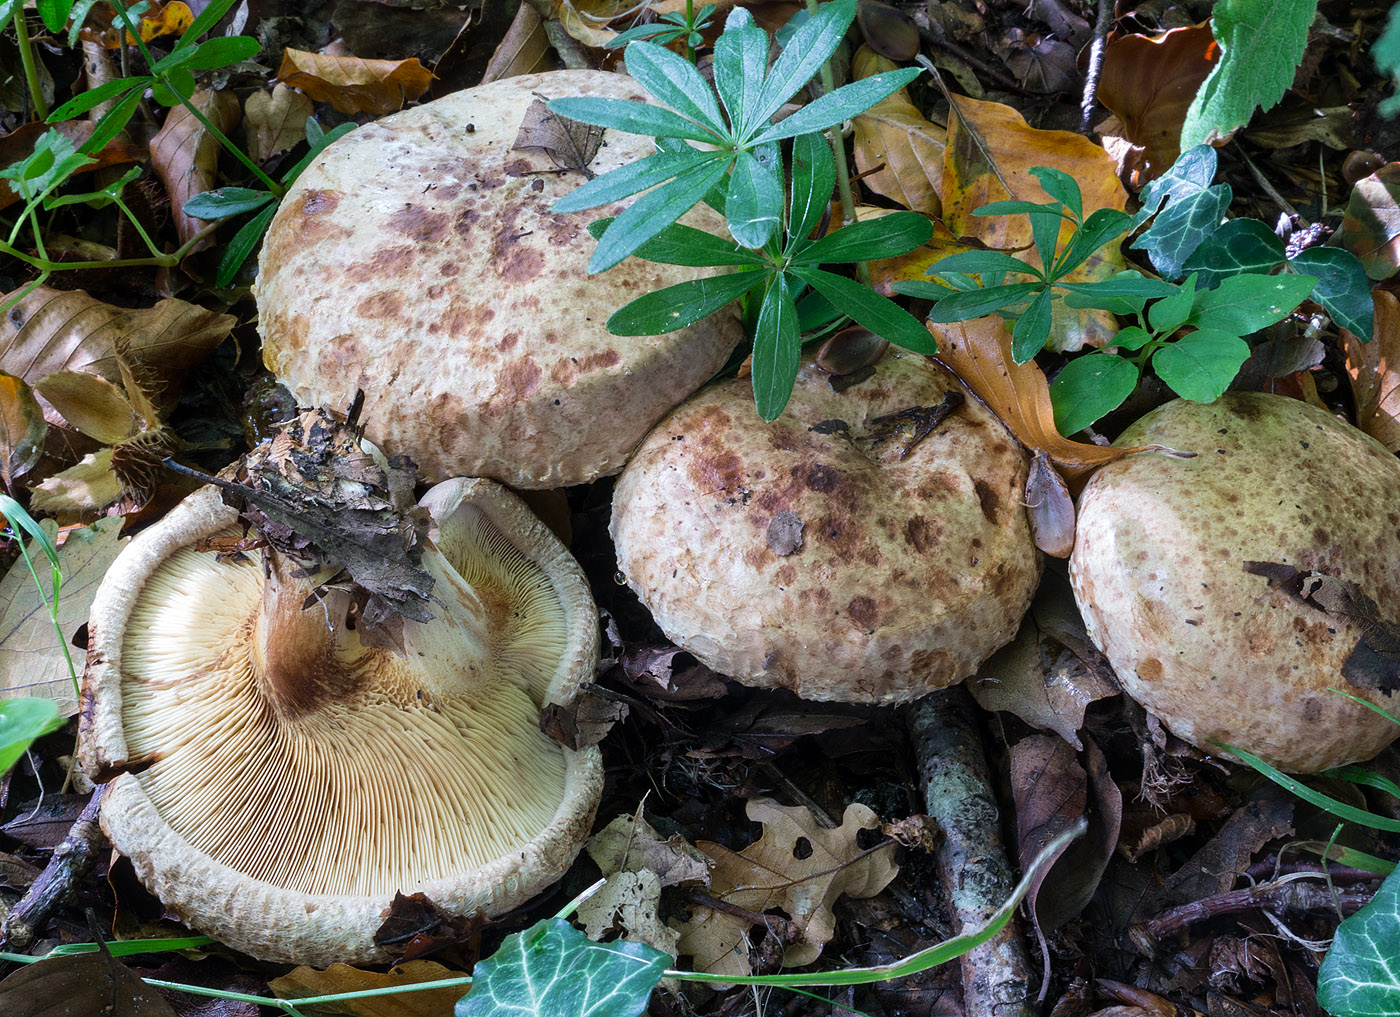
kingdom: Fungi
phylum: Basidiomycota
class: Agaricomycetes
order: Boletales
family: Paxillaceae
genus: Paxillus
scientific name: Paxillus ammoniavirescens
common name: olivensporet netbladhat
